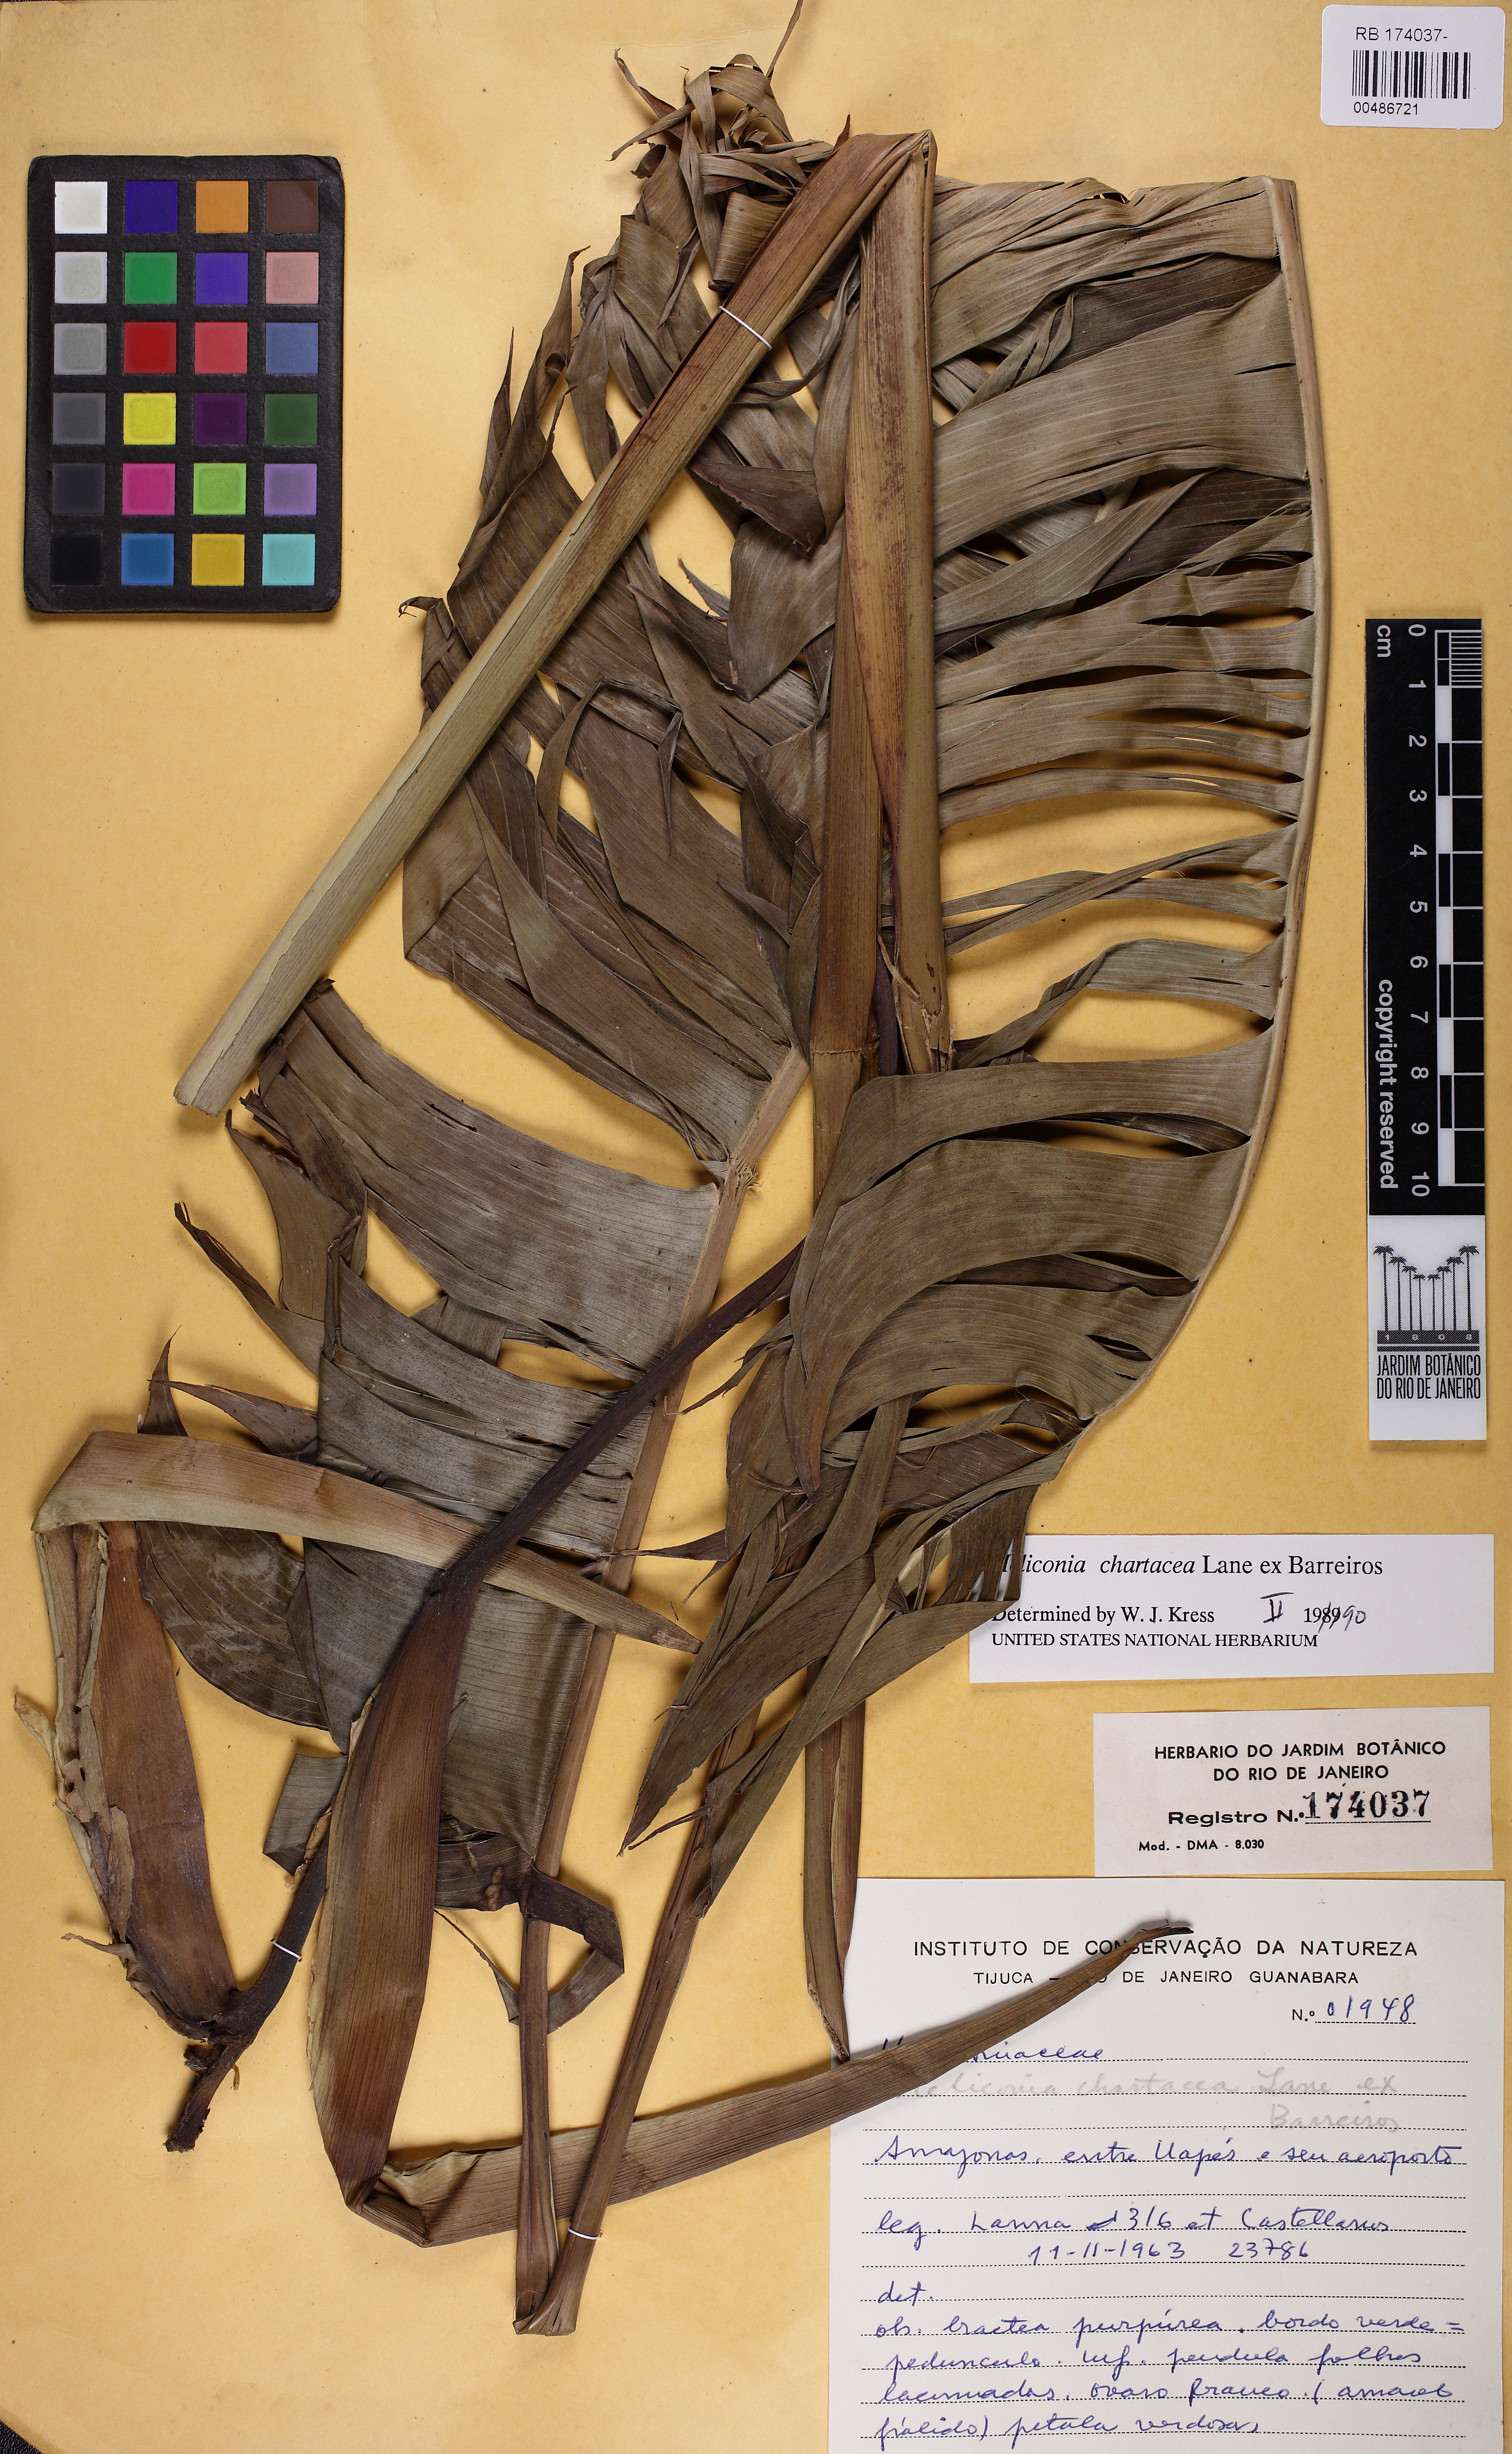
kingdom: Plantae
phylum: Tracheophyta
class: Liliopsida
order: Zingiberales
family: Heliconiaceae
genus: Heliconia
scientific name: Heliconia chartacea
